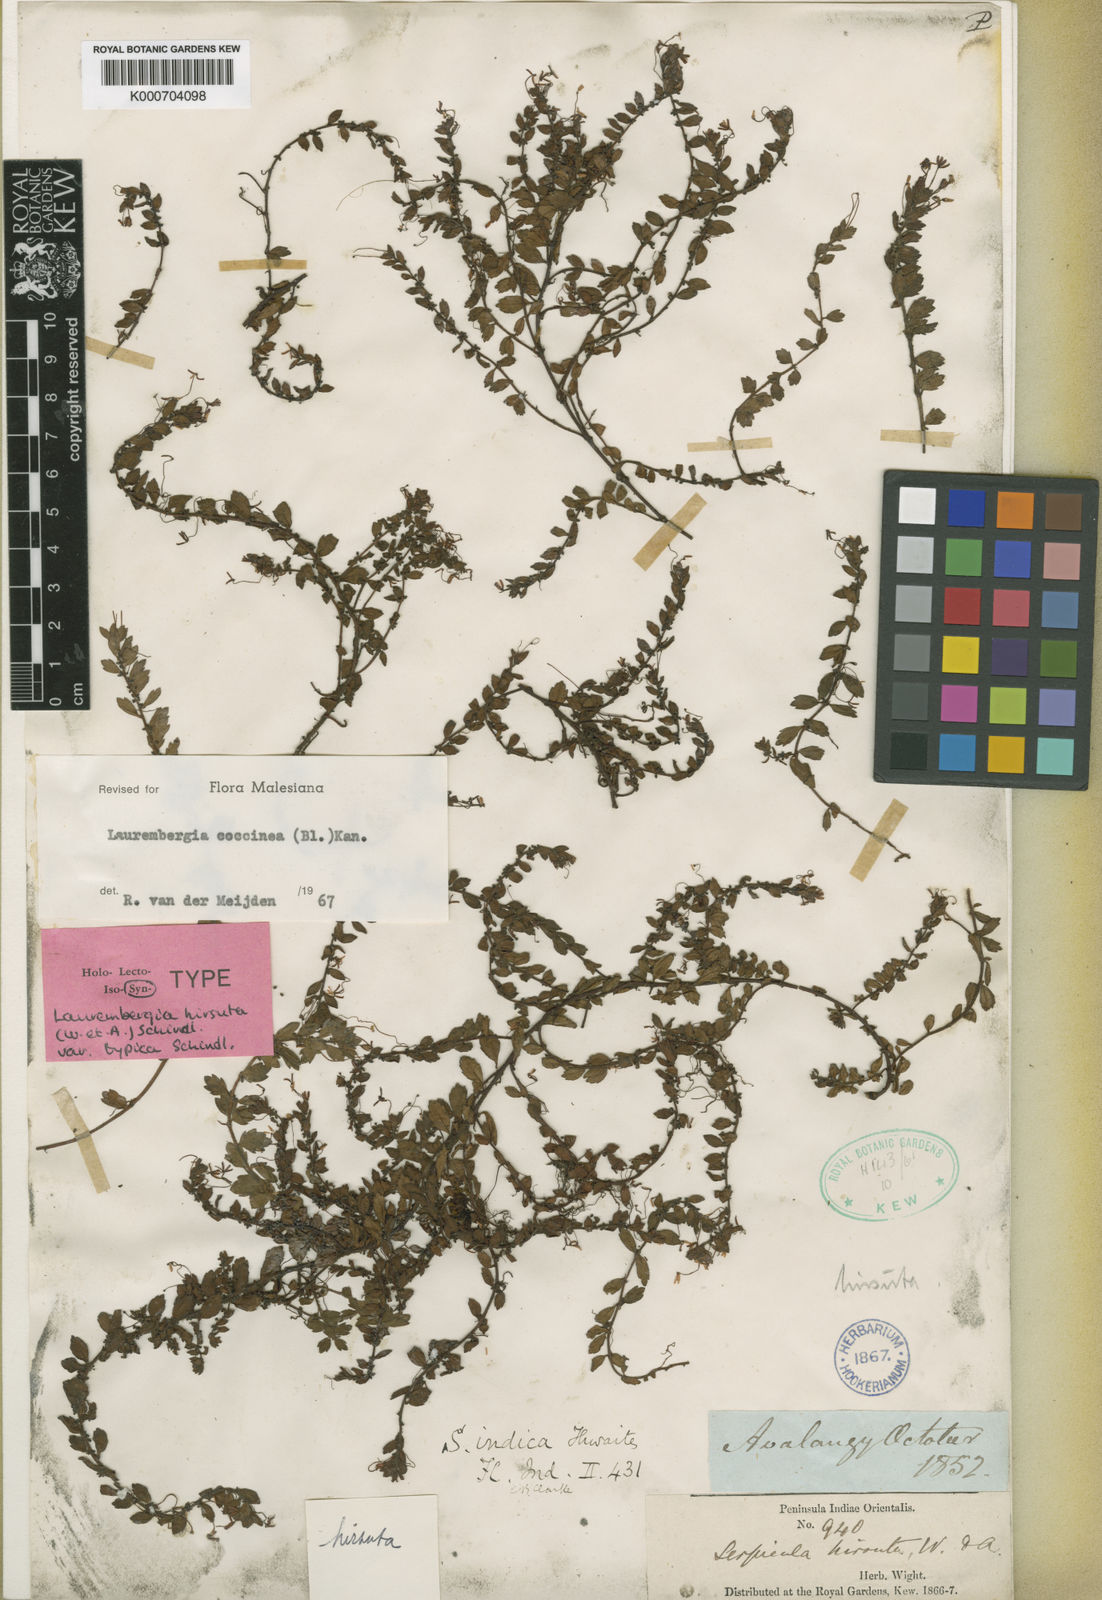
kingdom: Plantae
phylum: Tracheophyta
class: Magnoliopsida
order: Saxifragales
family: Haloragaceae
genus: Laurembergia
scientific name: Laurembergia coccinea
